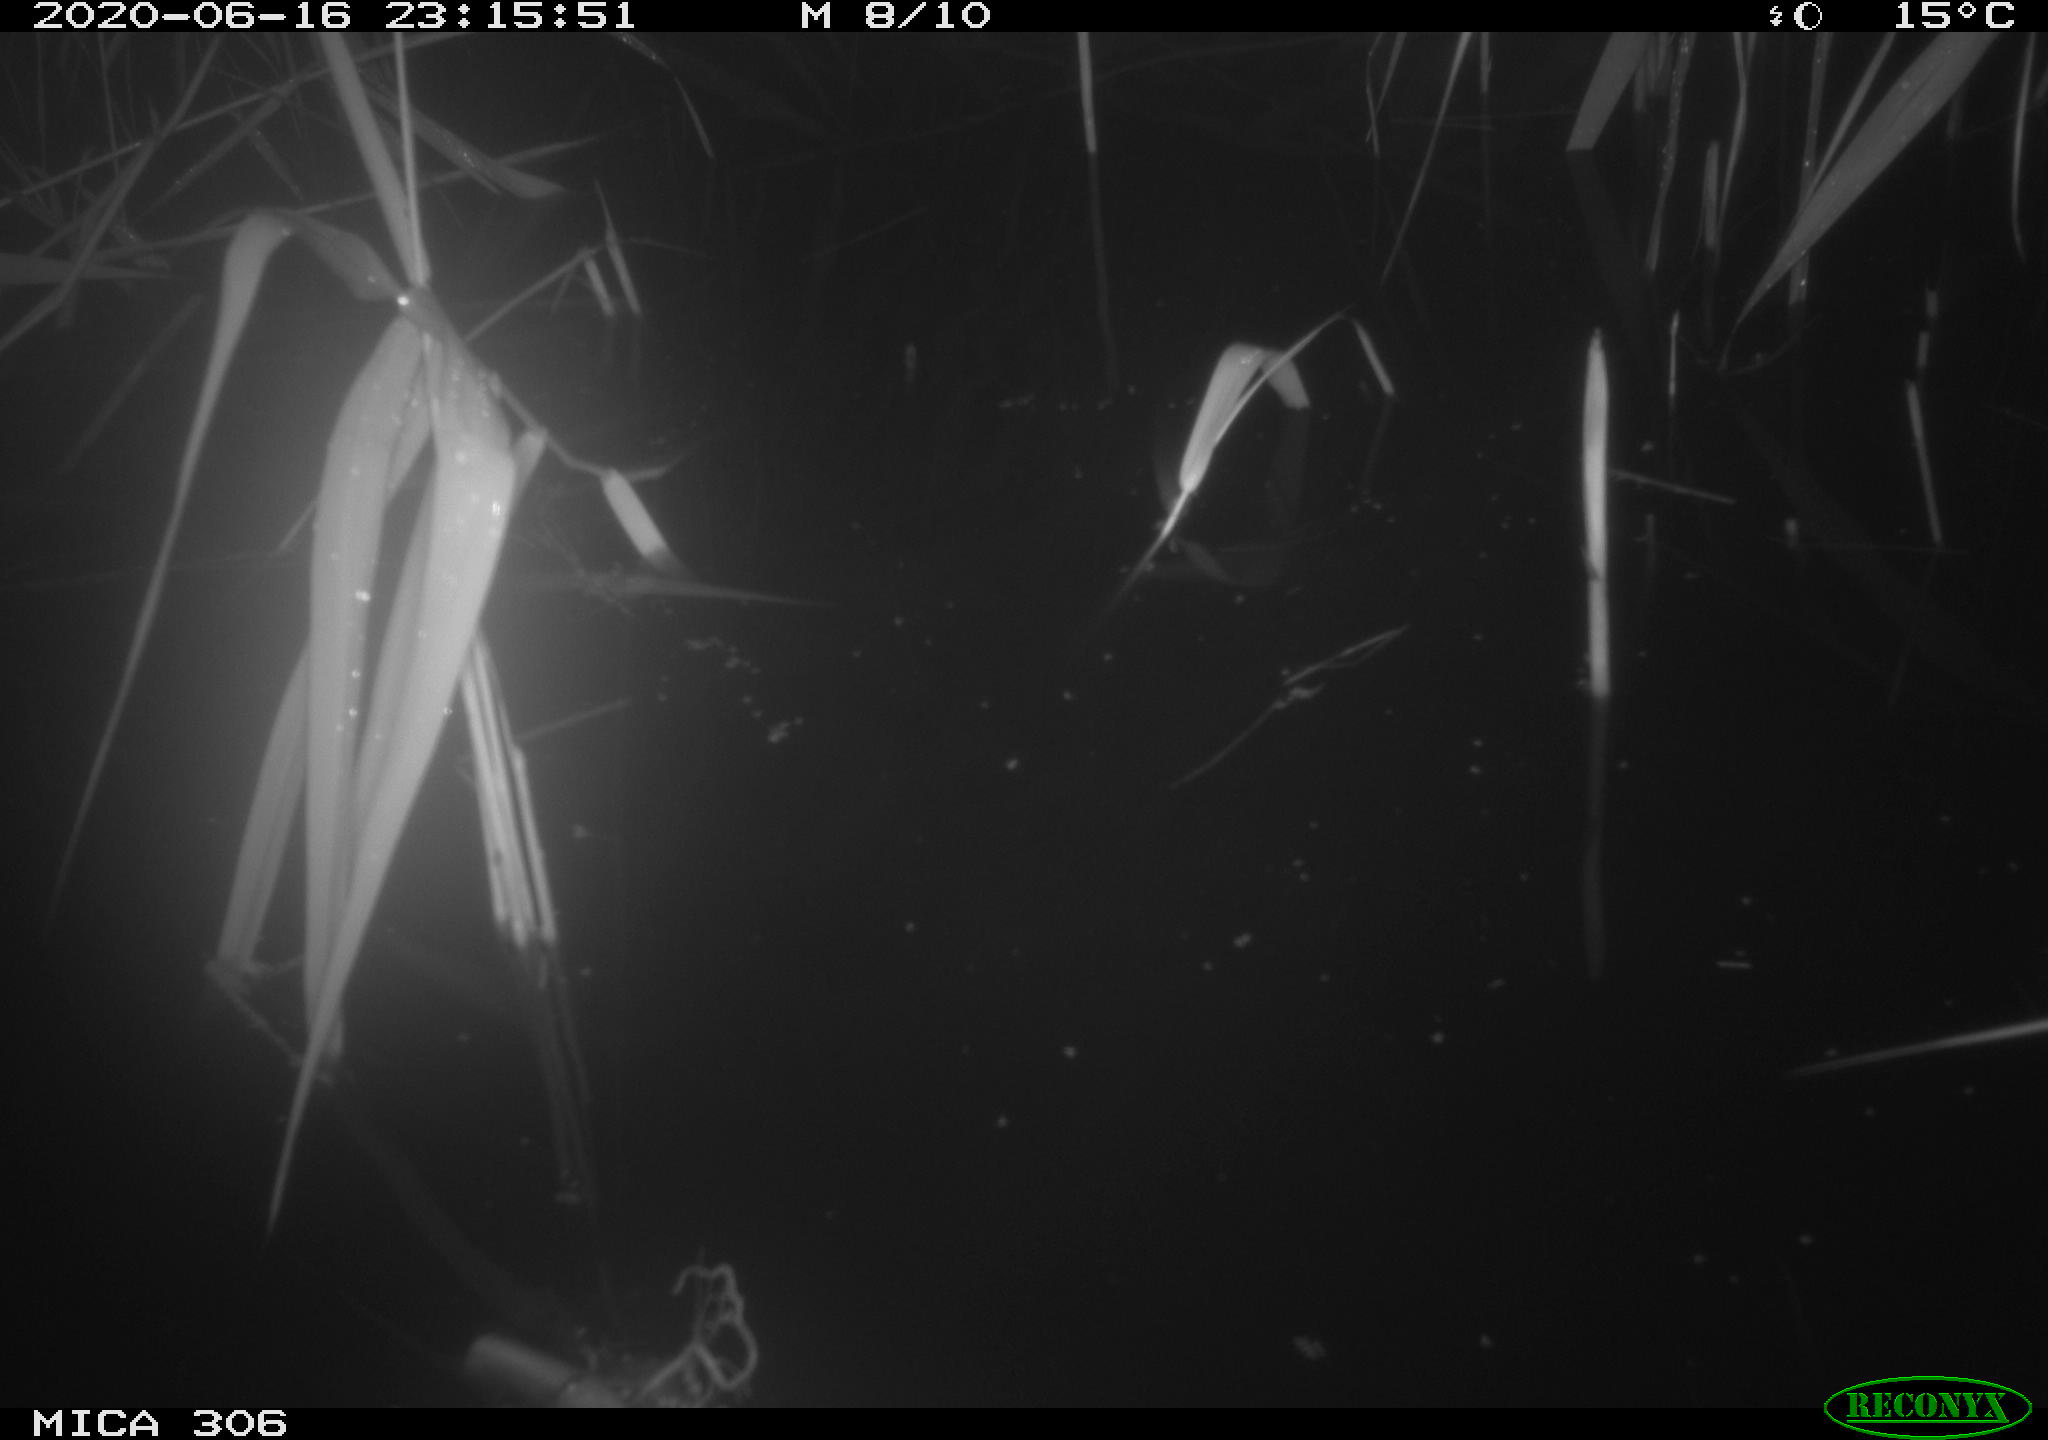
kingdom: Animalia
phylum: Chordata
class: Mammalia
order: Rodentia
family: Muridae
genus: Rattus
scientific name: Rattus norvegicus
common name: Brown rat
